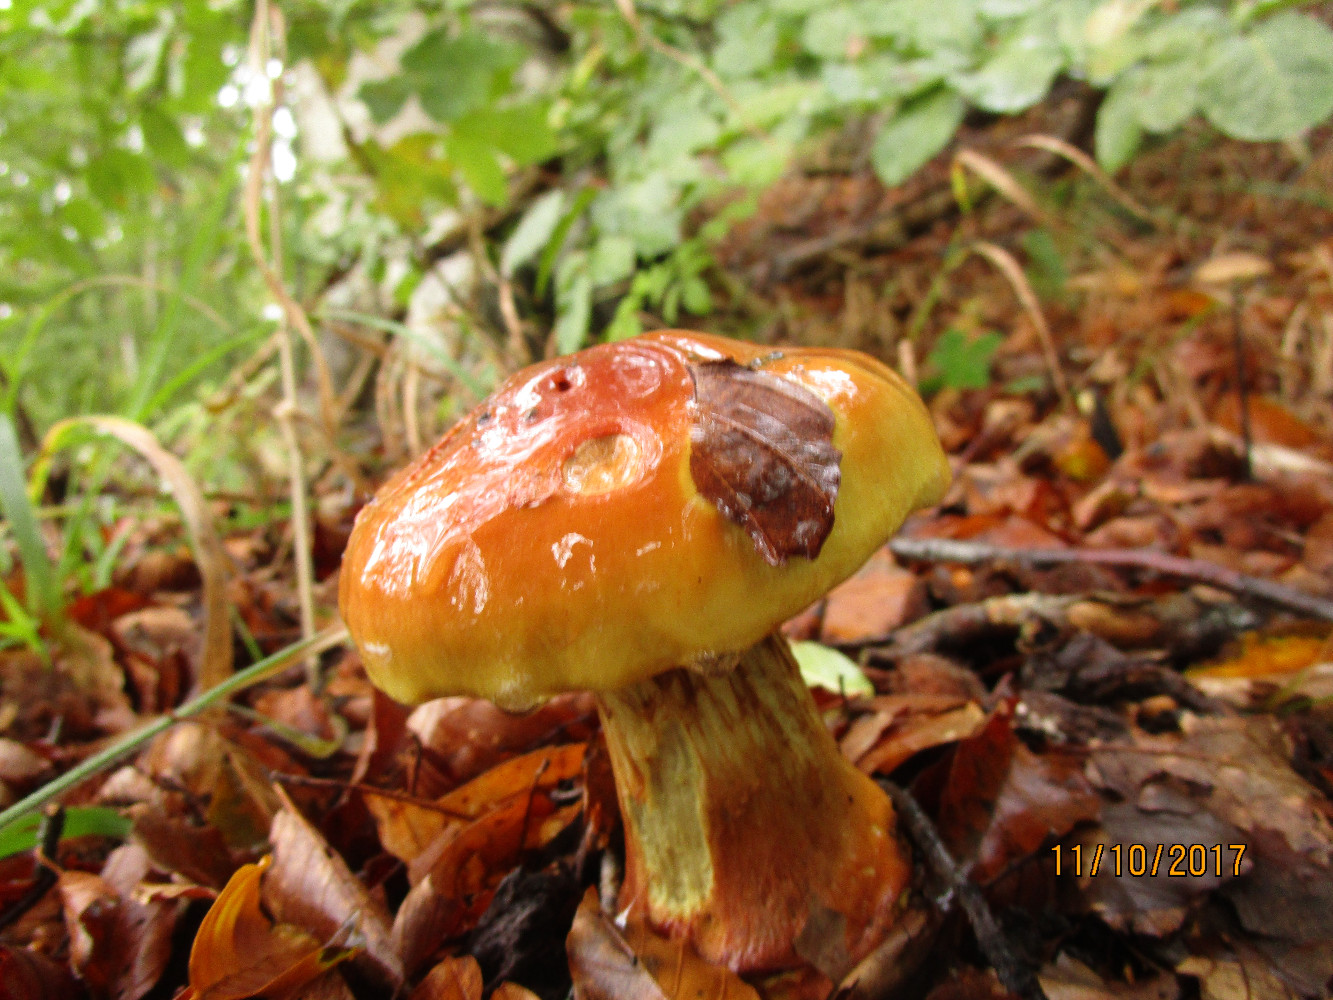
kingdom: Fungi
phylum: Basidiomycota
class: Agaricomycetes
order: Agaricales
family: Cortinariaceae
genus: Calonarius
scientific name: Calonarius elegantissimus
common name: orangegylden slørhat
